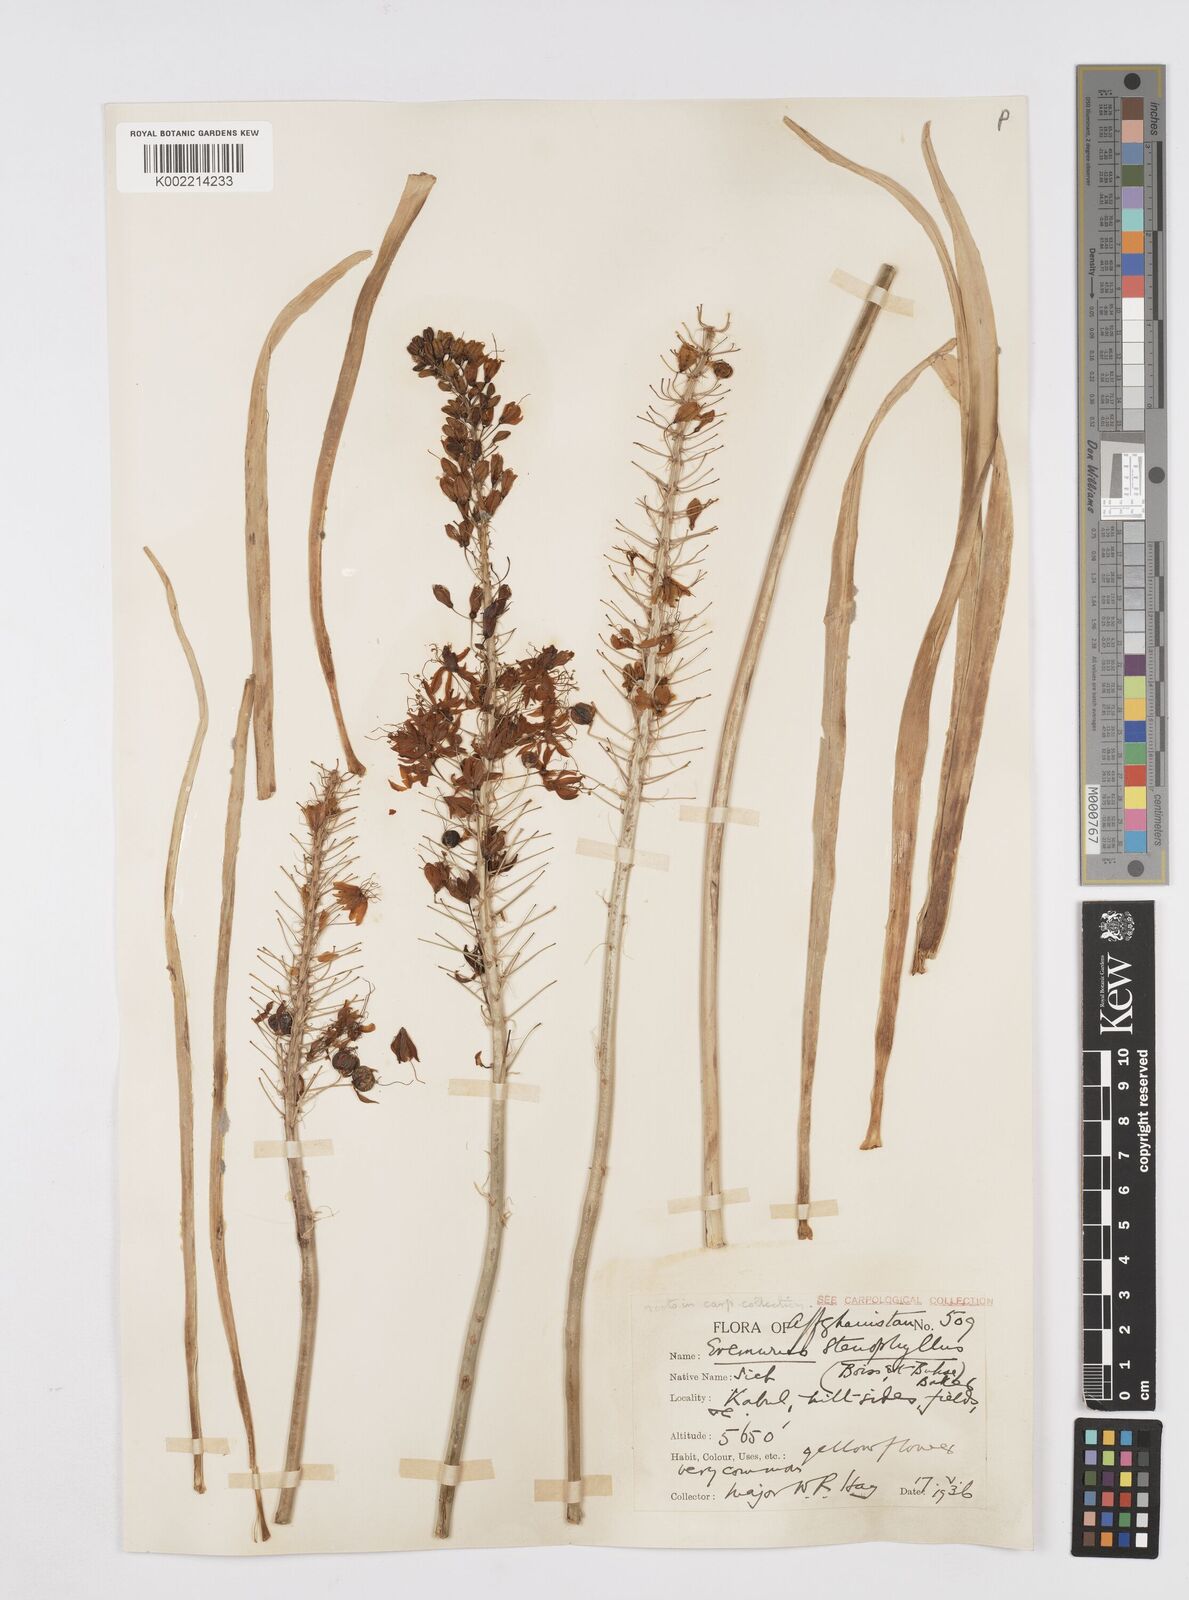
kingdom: Plantae
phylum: Tracheophyta
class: Liliopsida
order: Asparagales
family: Asphodelaceae
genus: Eremurus
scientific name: Eremurus stenophyllus
